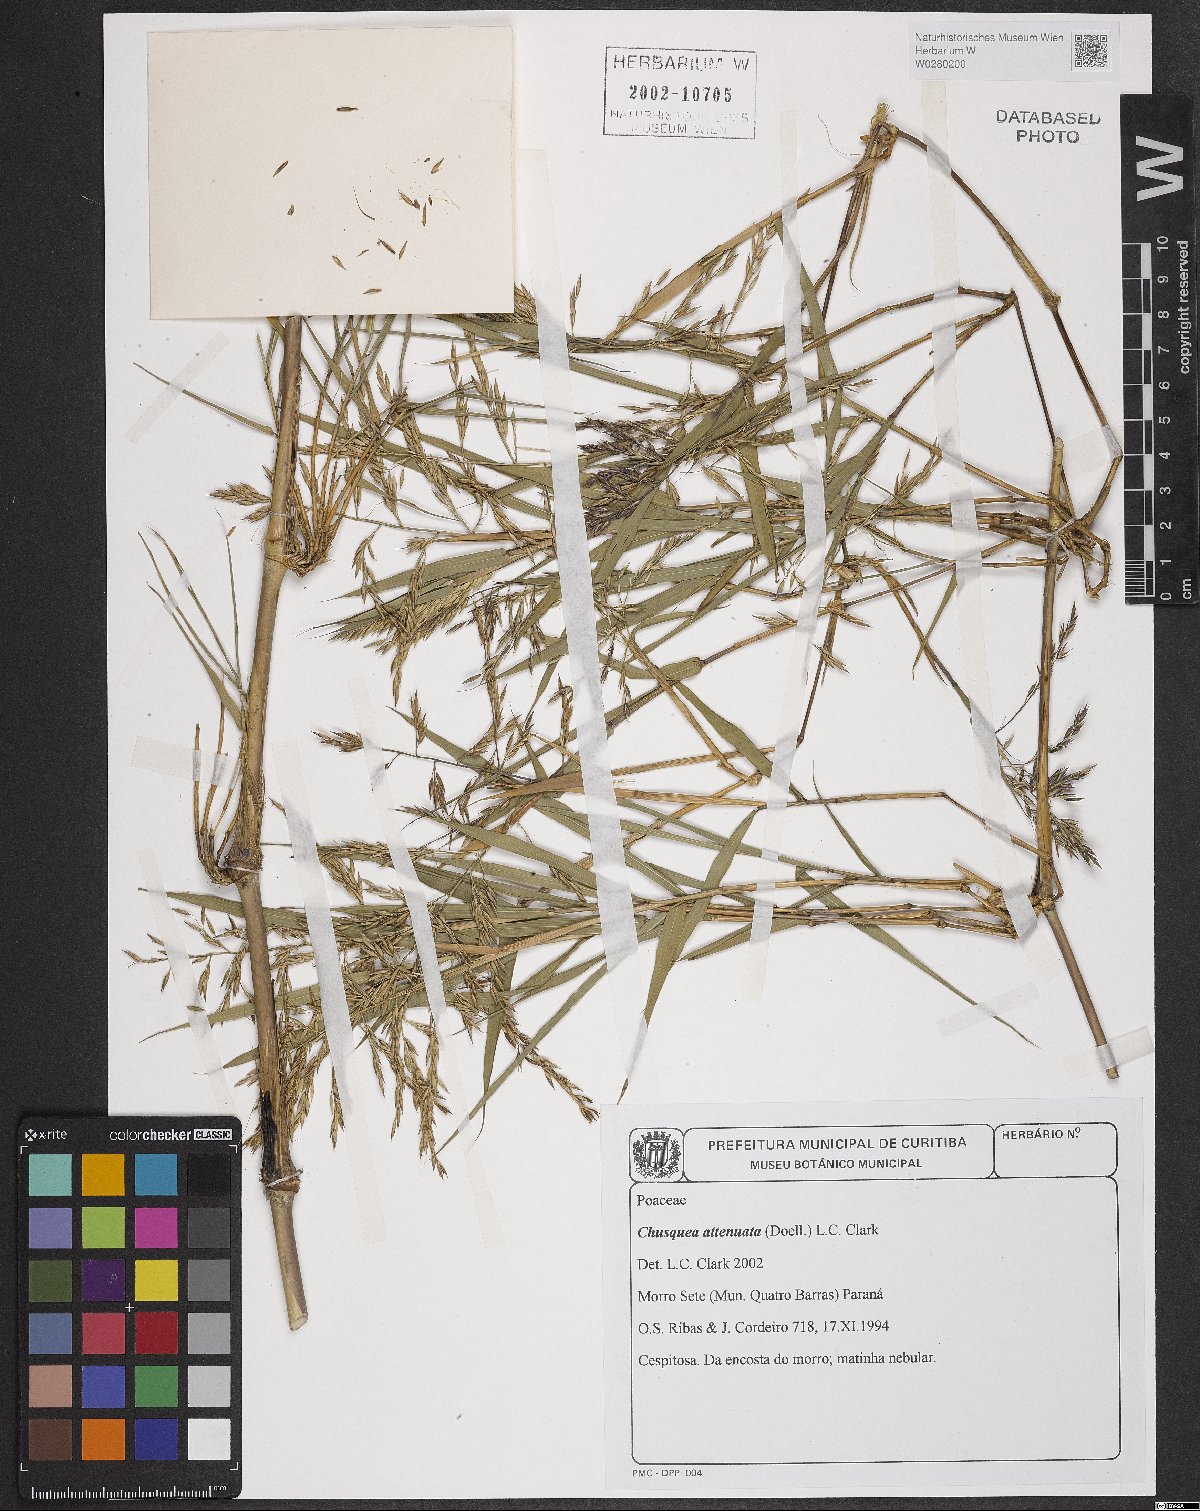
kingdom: Plantae
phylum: Tracheophyta
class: Liliopsida
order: Poales
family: Poaceae
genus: Chusquea
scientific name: Chusquea attenuata
